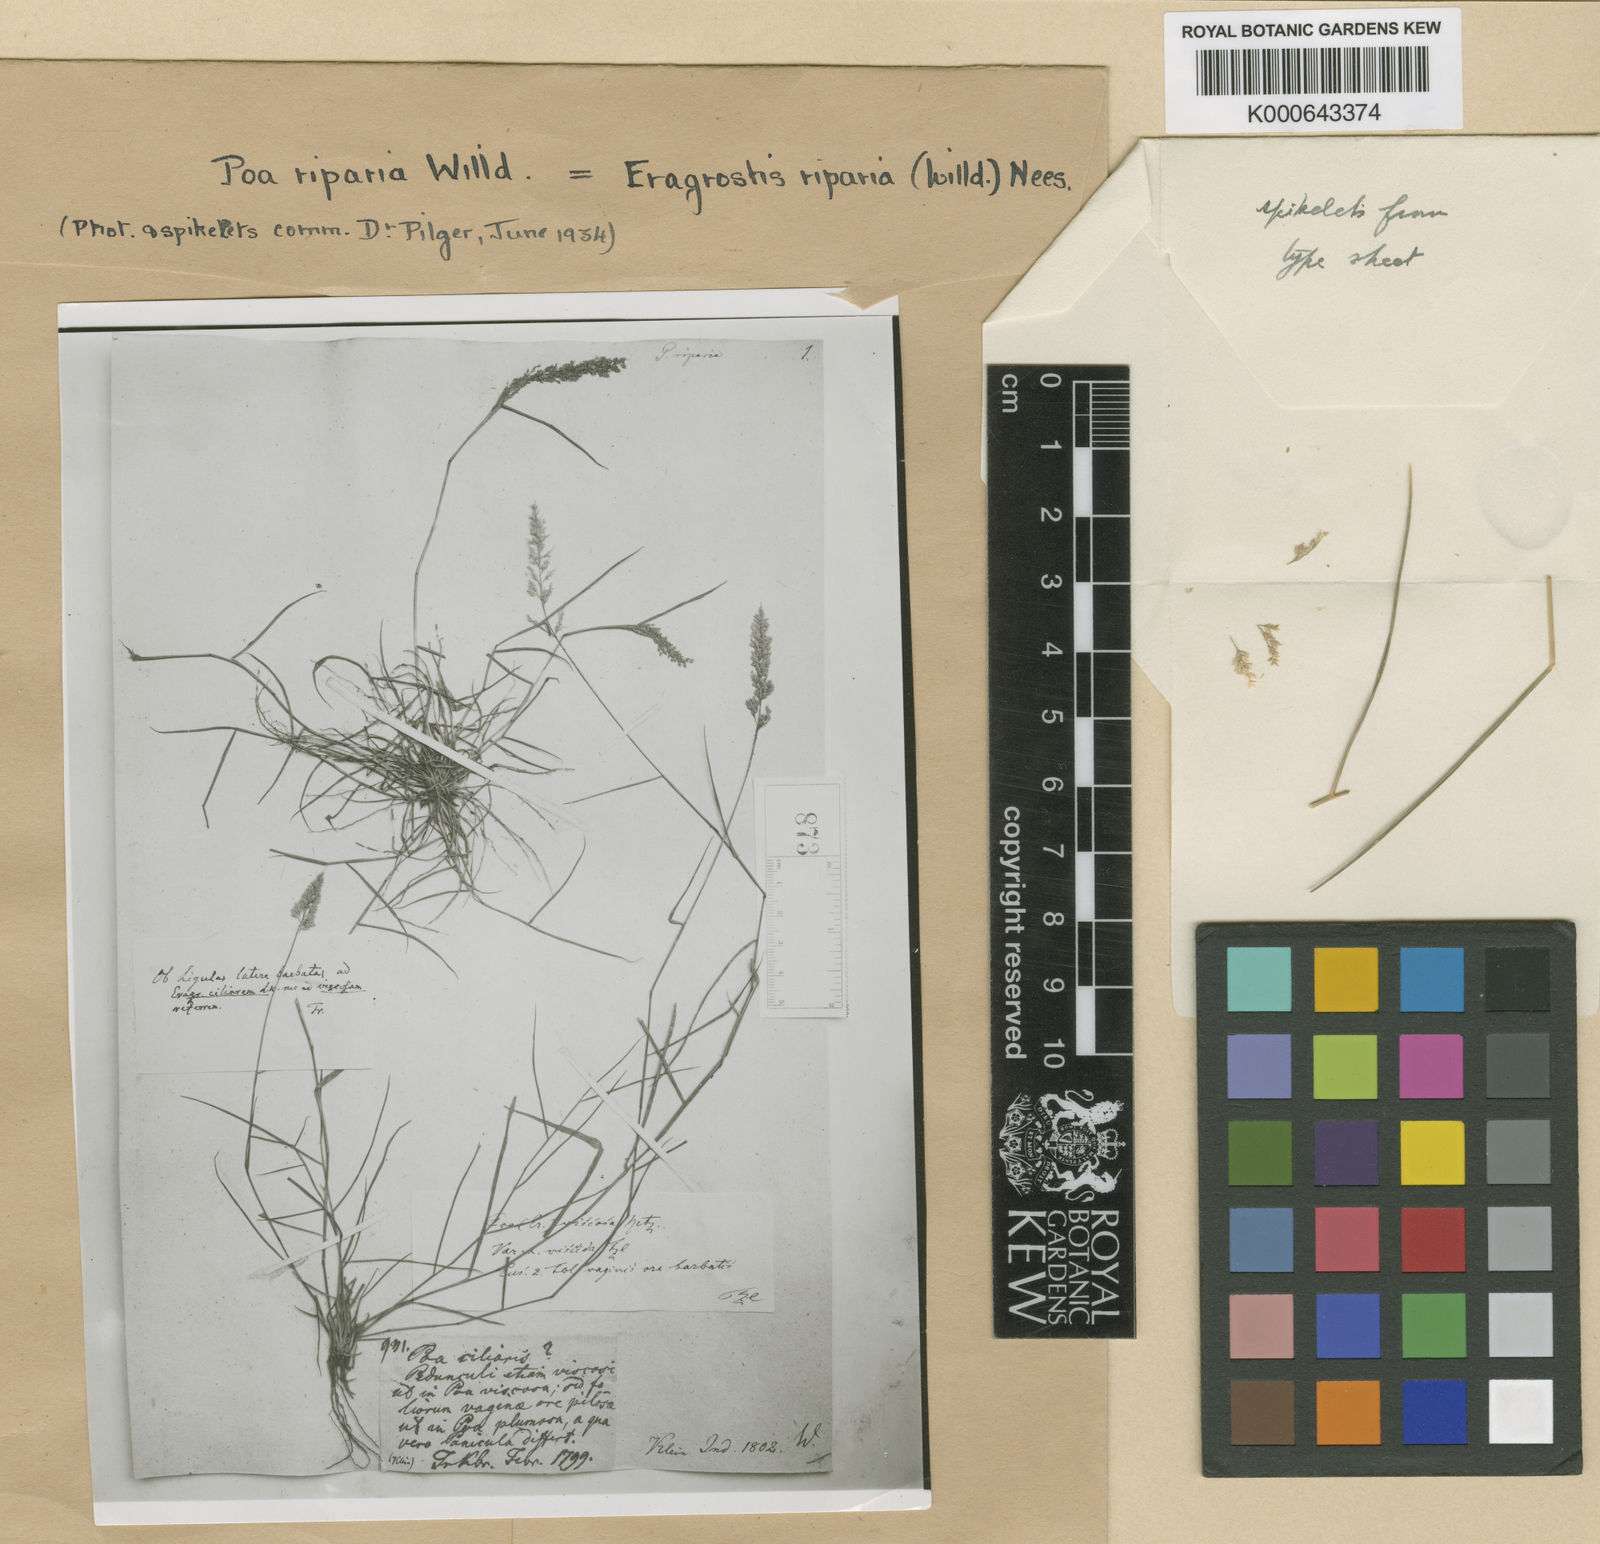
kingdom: Plantae
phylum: Tracheophyta
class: Liliopsida
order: Poales
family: Poaceae
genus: Eragrostis
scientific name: Eragrostis riparia
